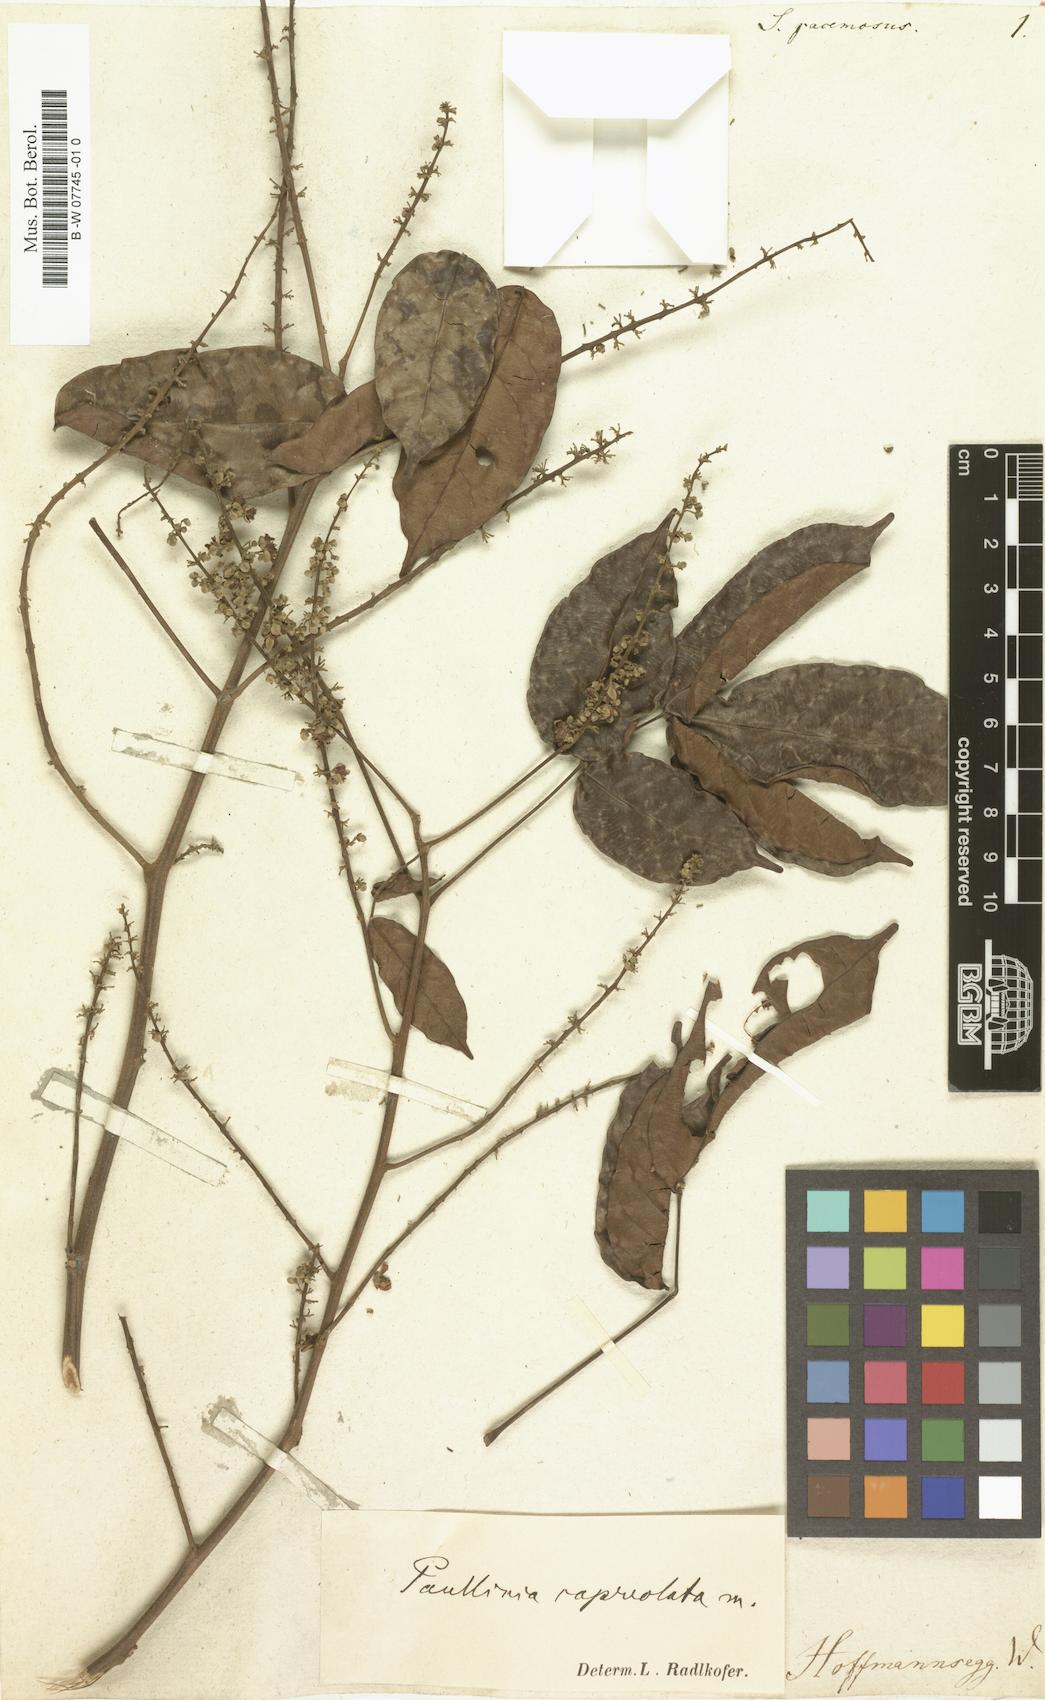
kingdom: Plantae
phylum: Tracheophyta
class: Magnoliopsida
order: Sapindales
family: Sapindaceae
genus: Sapindus
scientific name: Sapindus
